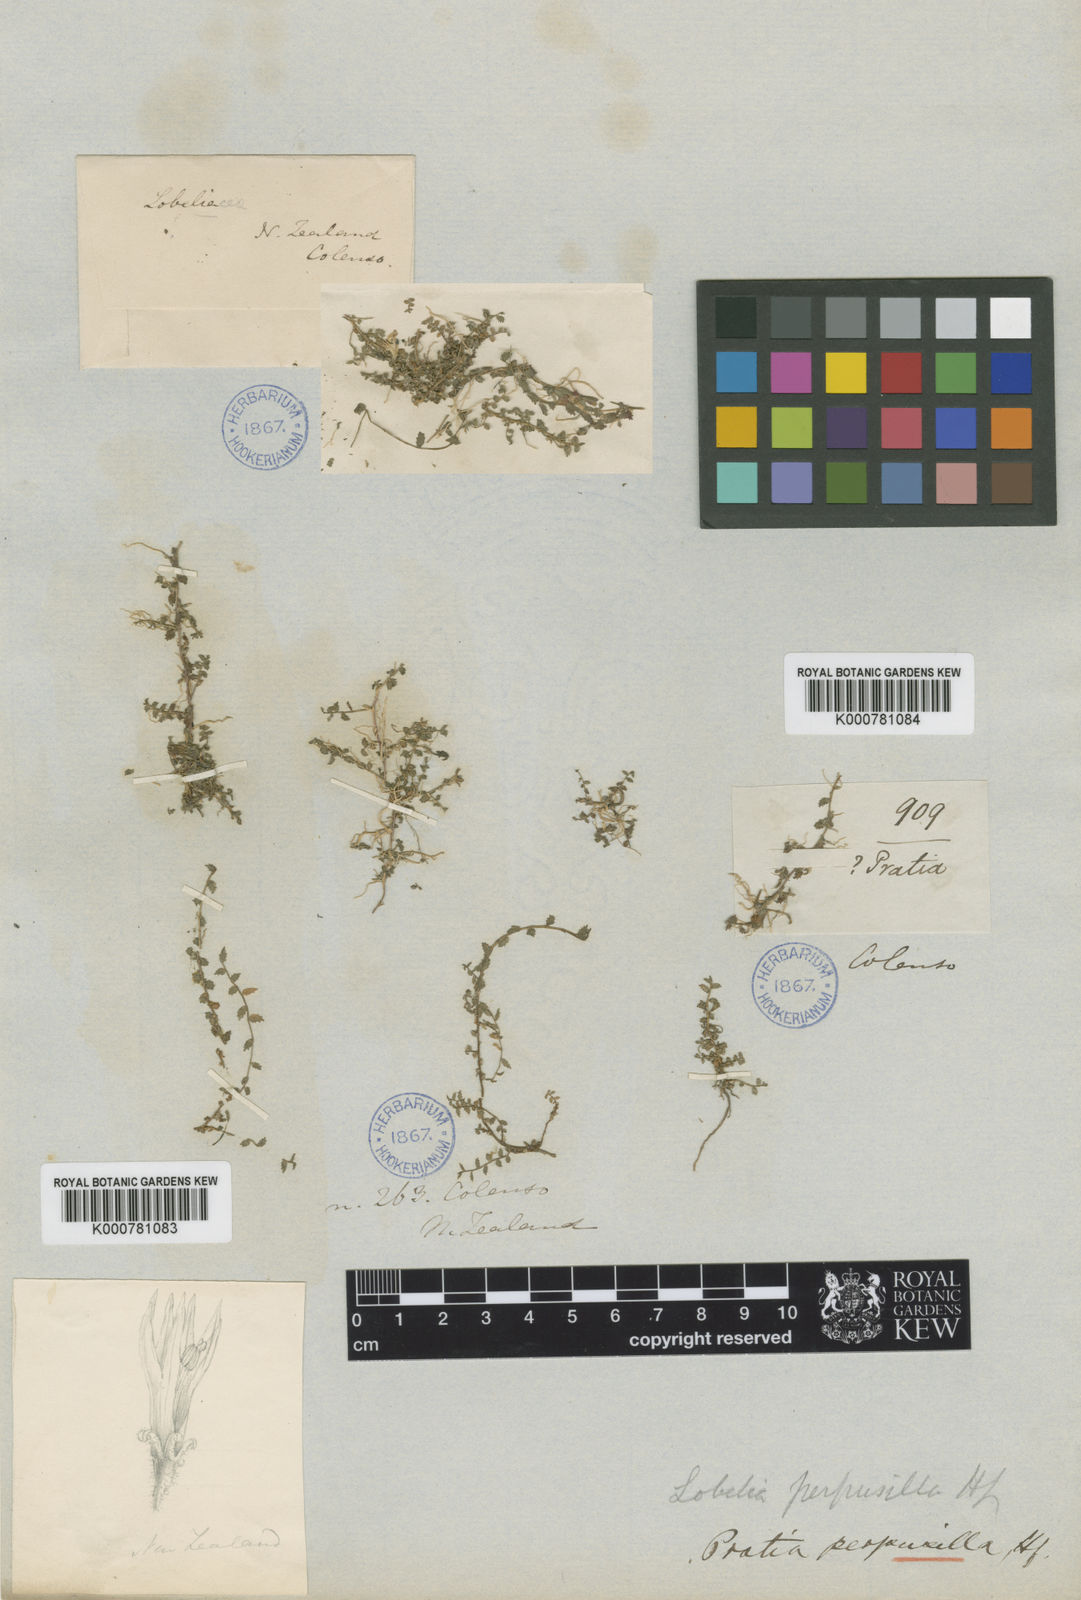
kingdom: Plantae
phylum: Tracheophyta
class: Magnoliopsida
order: Asterales
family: Campanulaceae
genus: Lobelia
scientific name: Lobelia perpusilla
